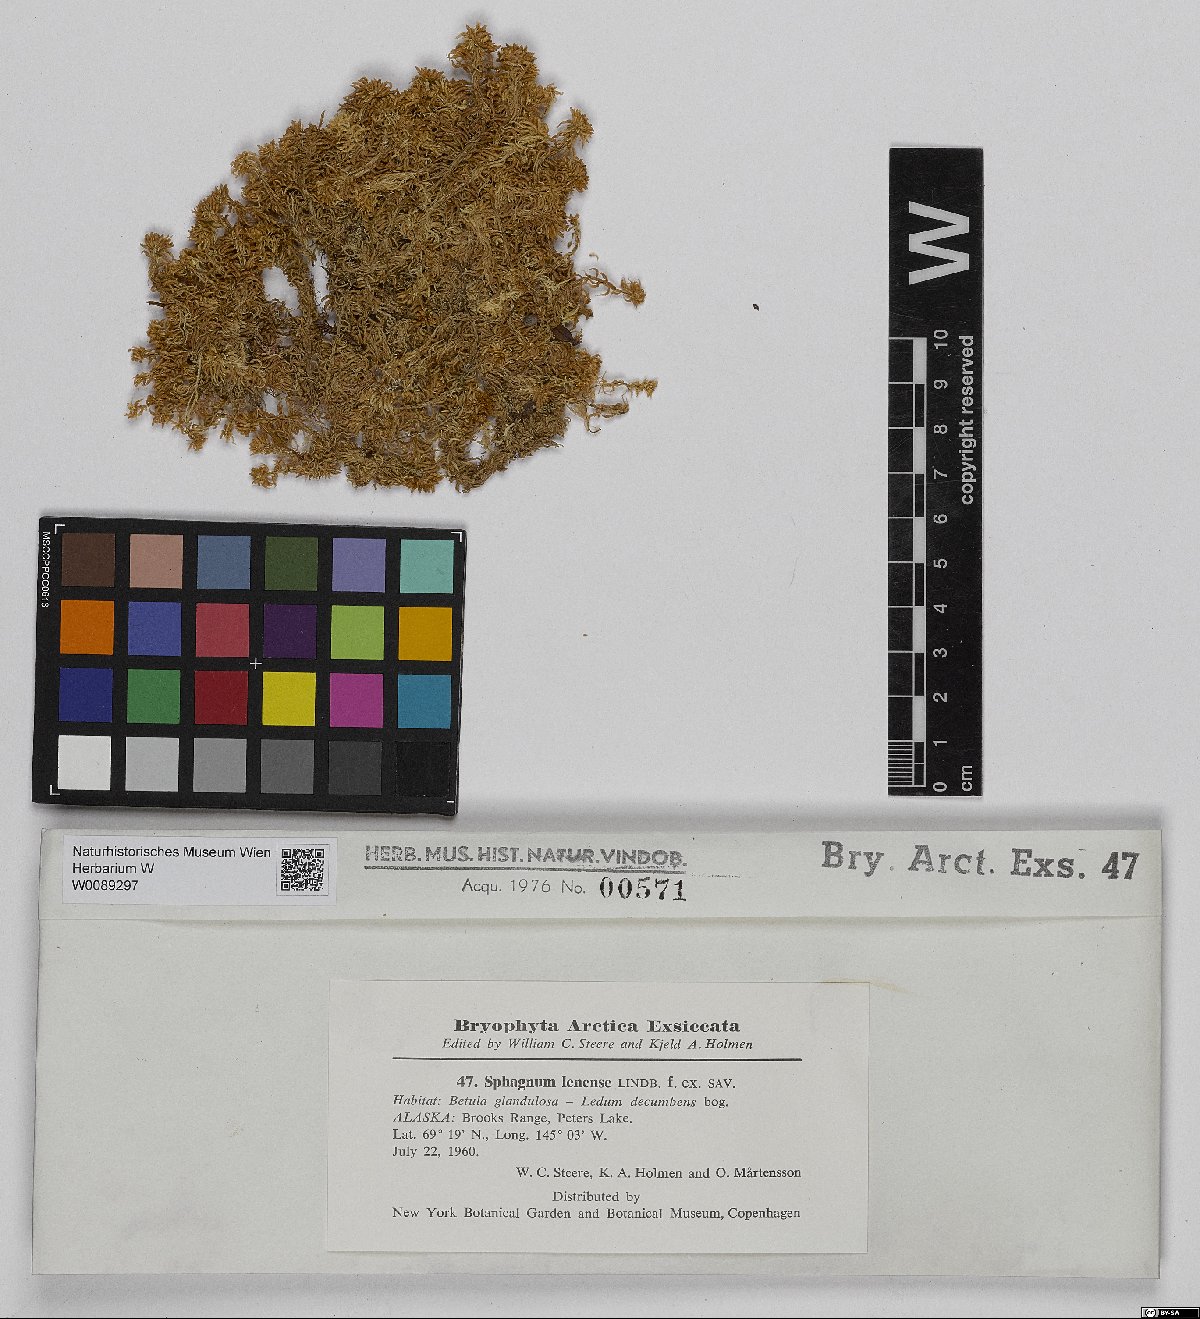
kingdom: Plantae
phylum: Bryophyta
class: Sphagnopsida
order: Sphagnales
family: Sphagnaceae
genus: Sphagnum
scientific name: Sphagnum lenense
